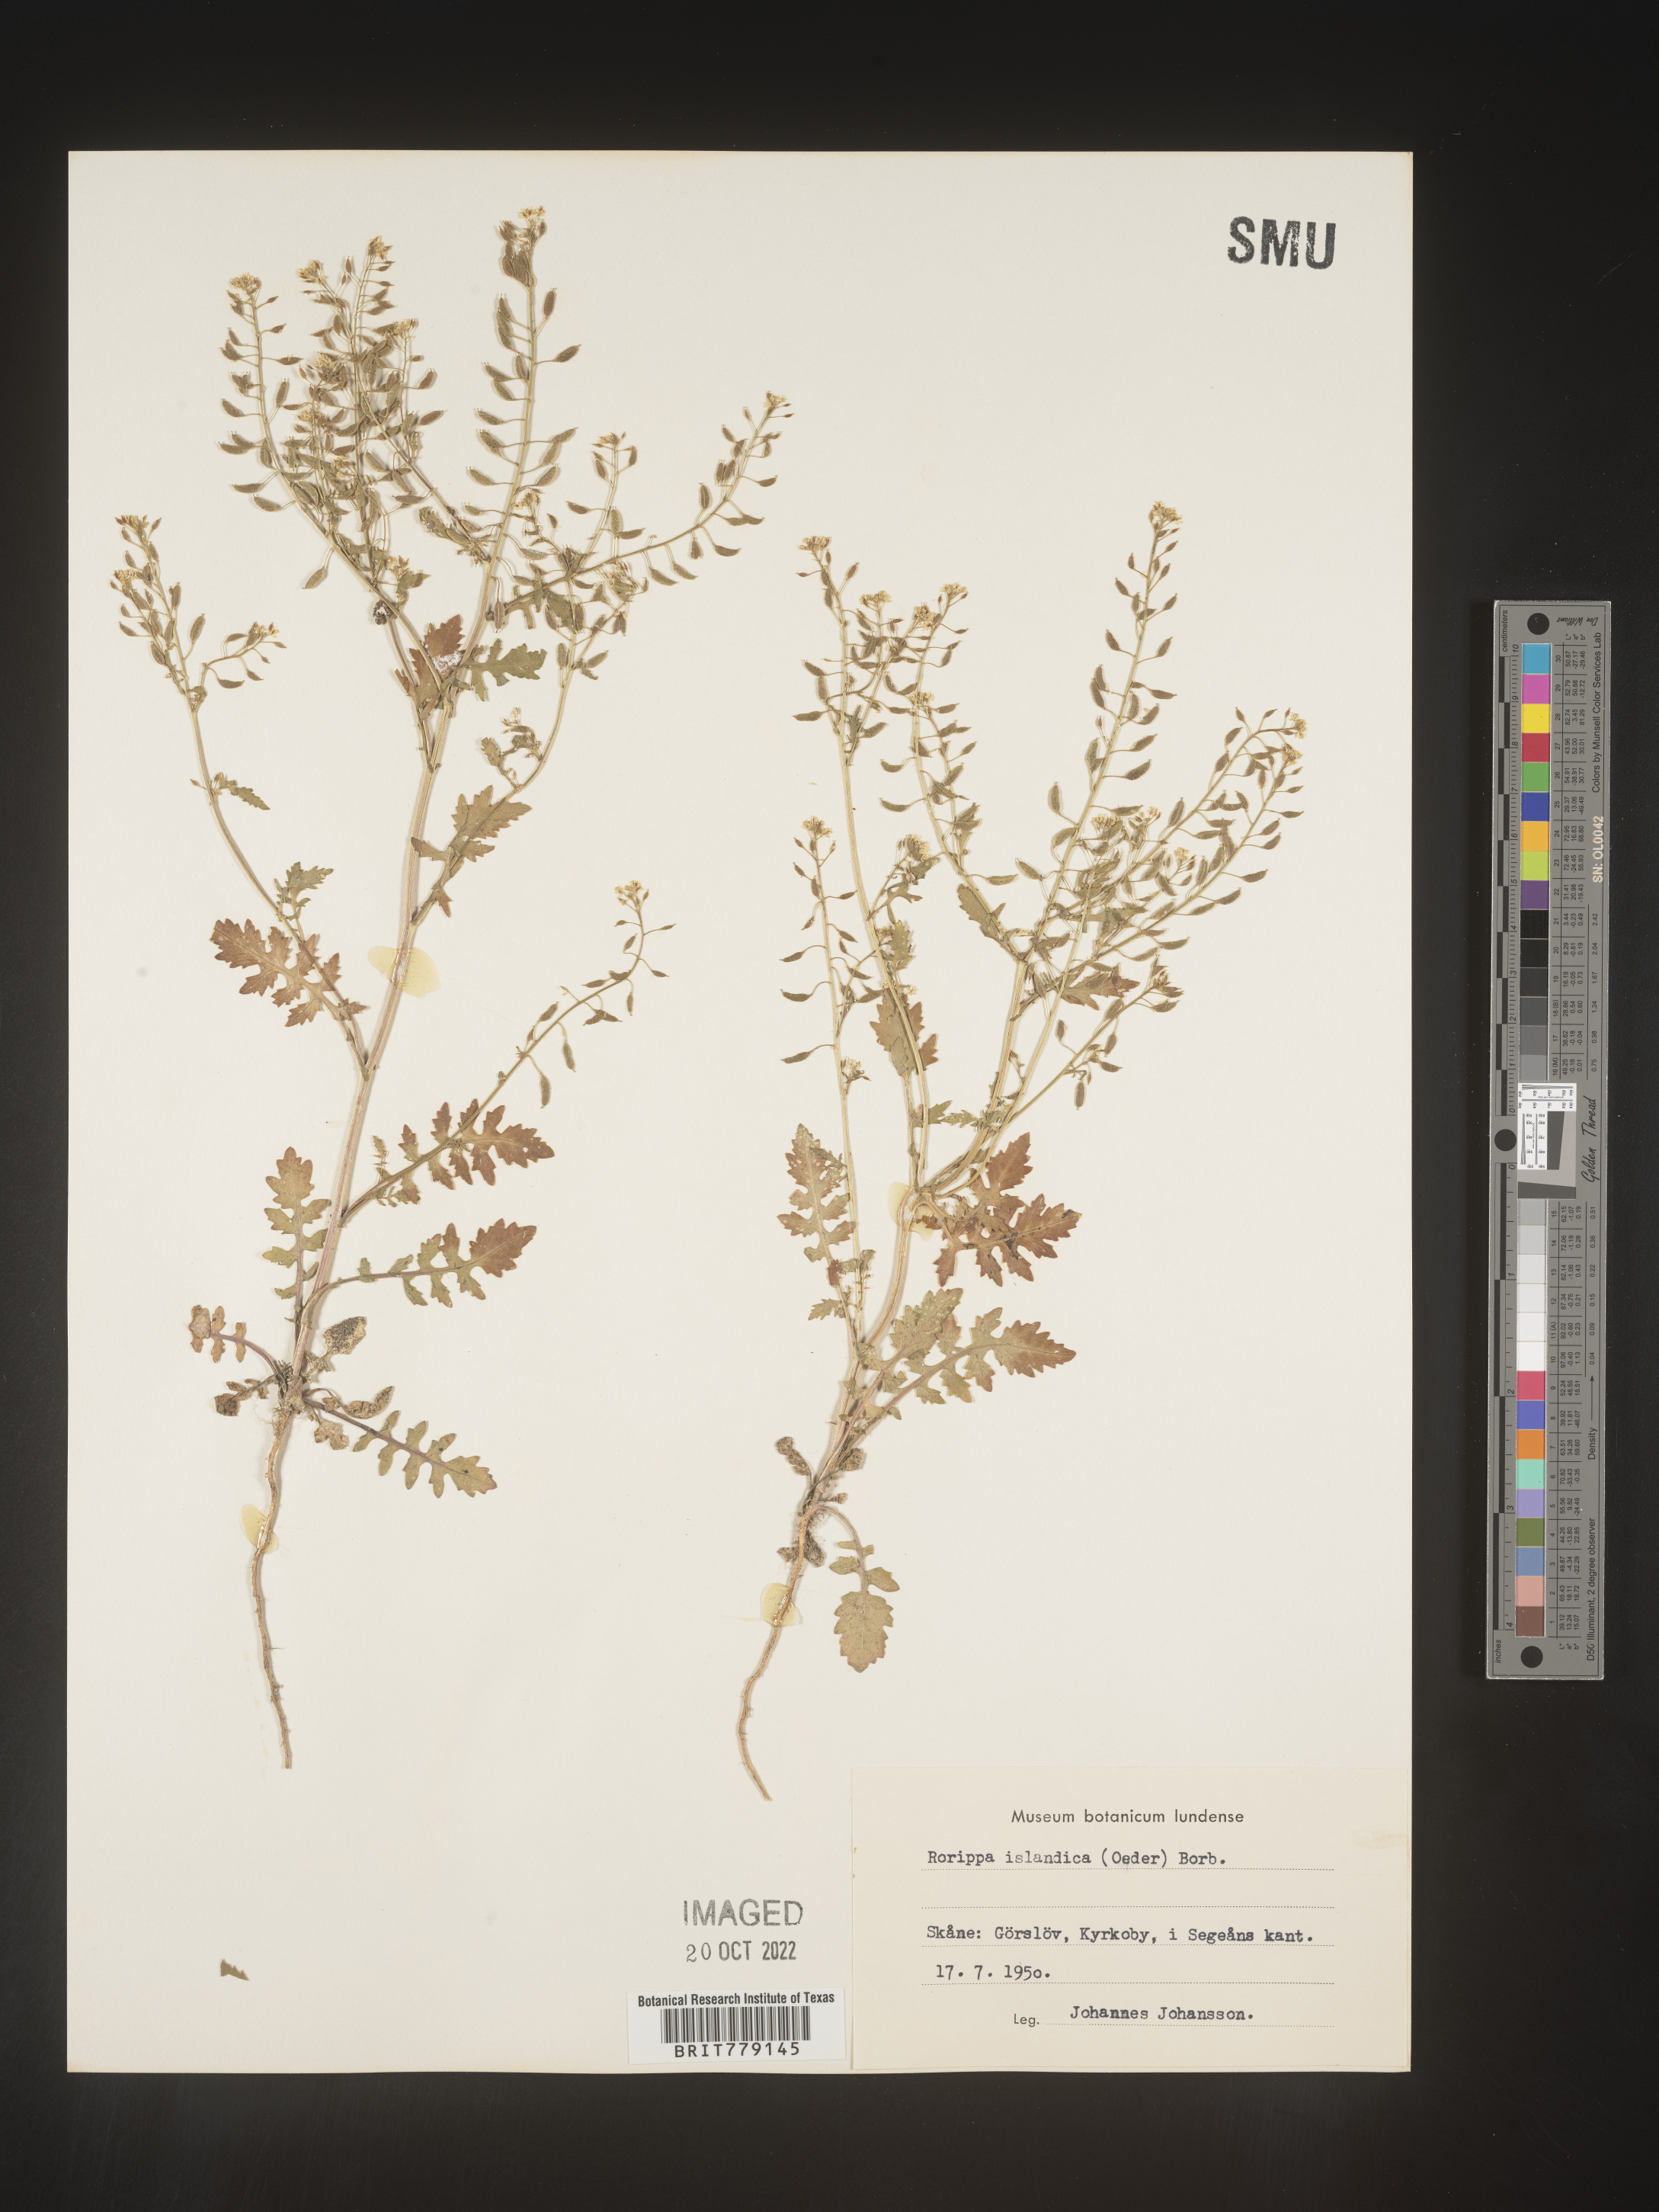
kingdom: Plantae
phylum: Tracheophyta
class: Magnoliopsida
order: Brassicales
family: Brassicaceae
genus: Rorippa
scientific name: Rorippa
